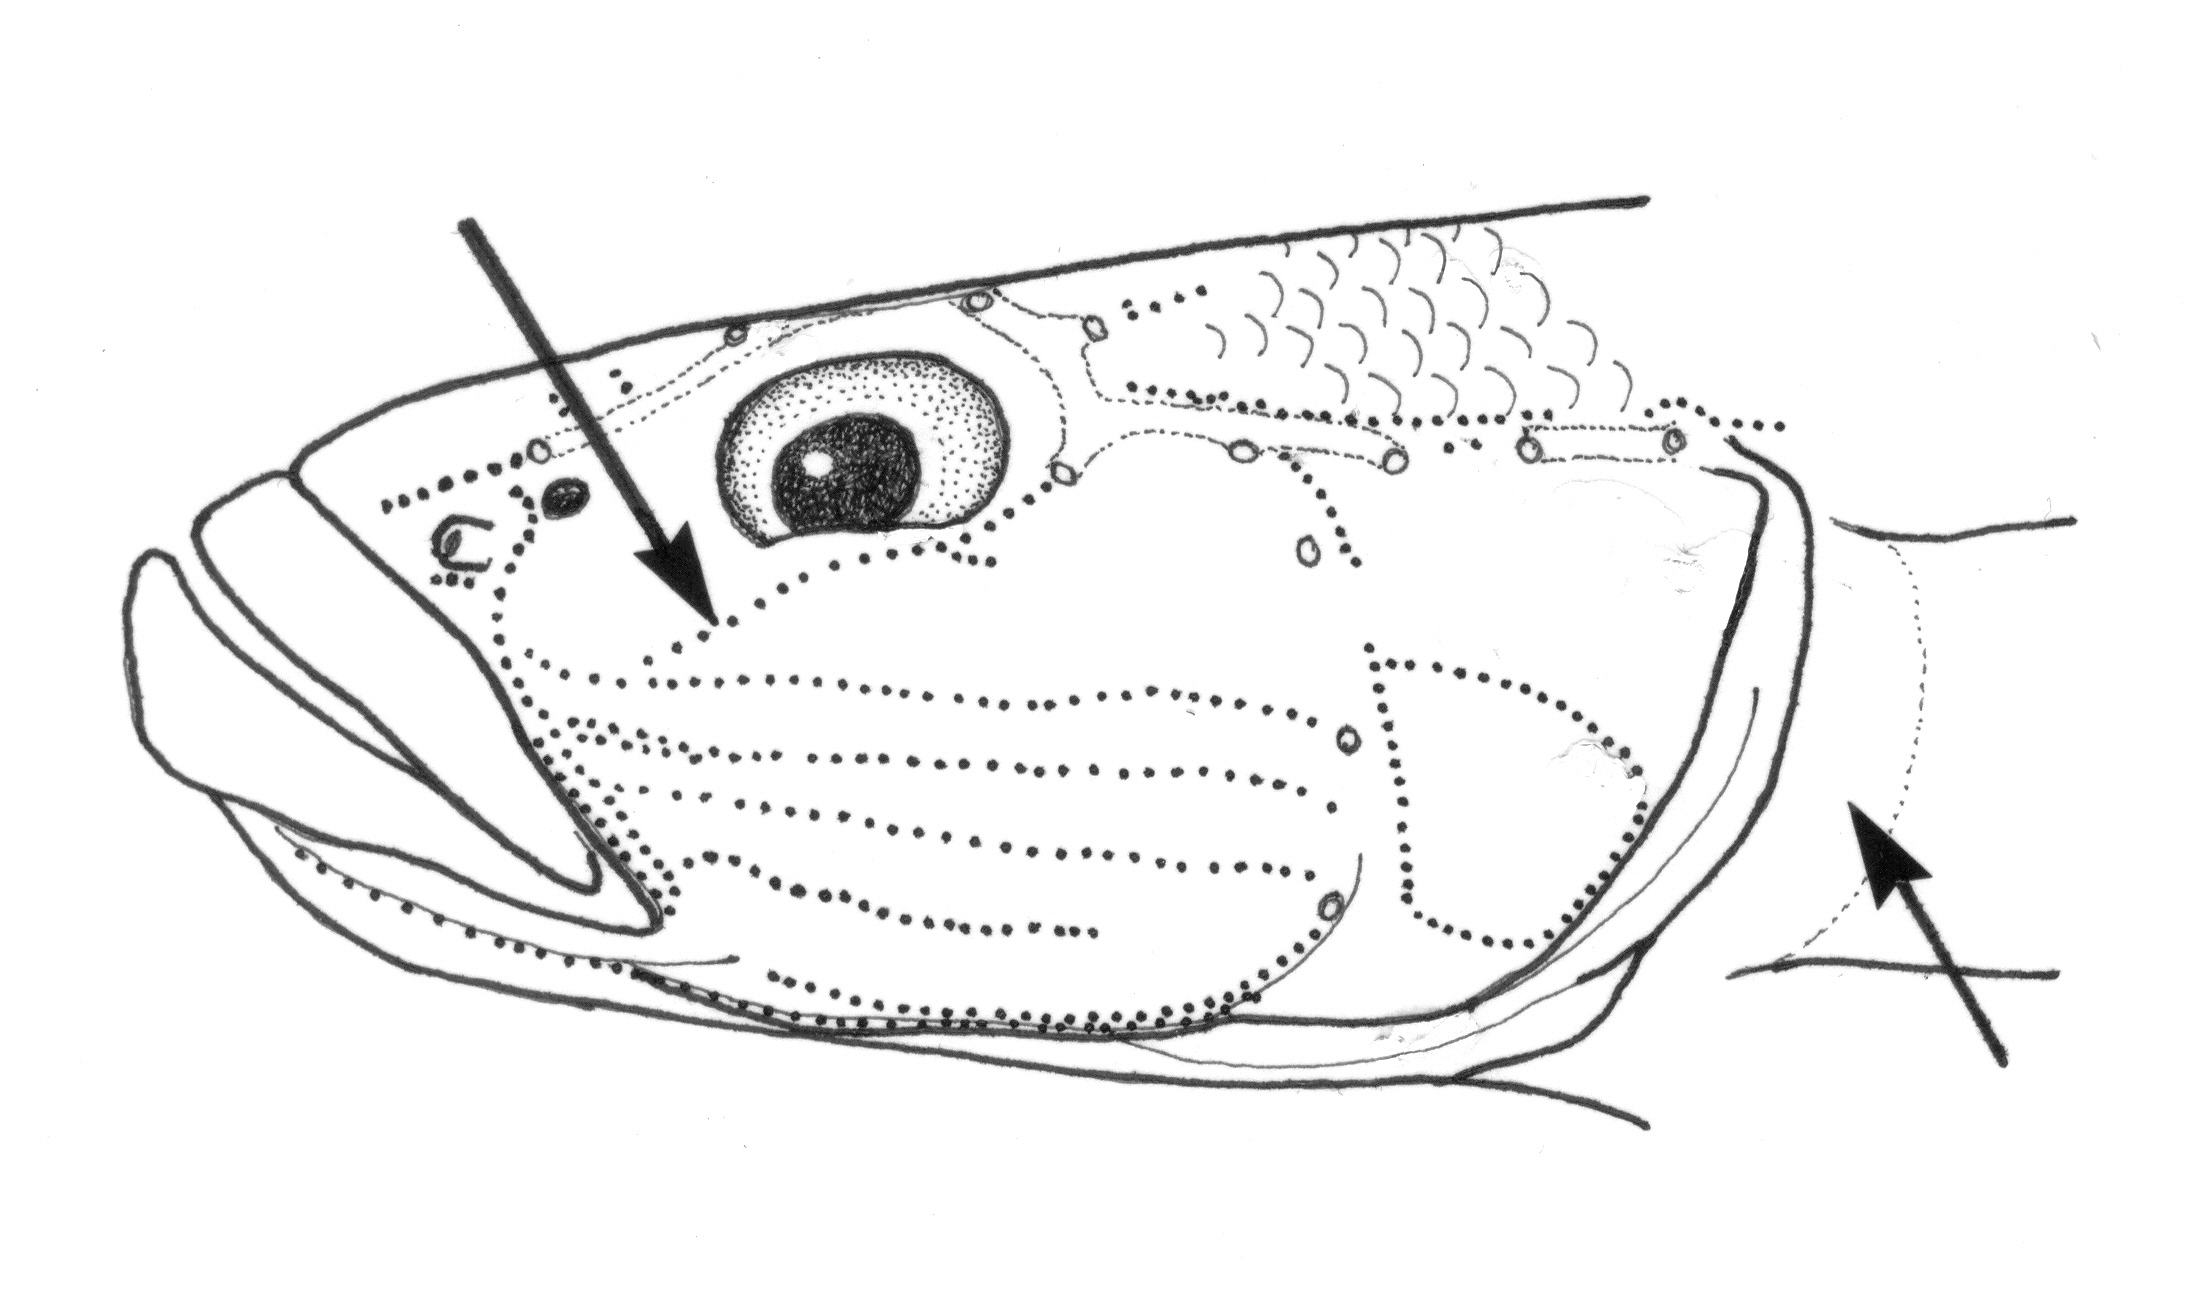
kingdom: Animalia
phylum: Chordata
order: Perciformes
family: Gobiidae
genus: Glossogobius
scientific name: Glossogobius giuris
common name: Tank goby
